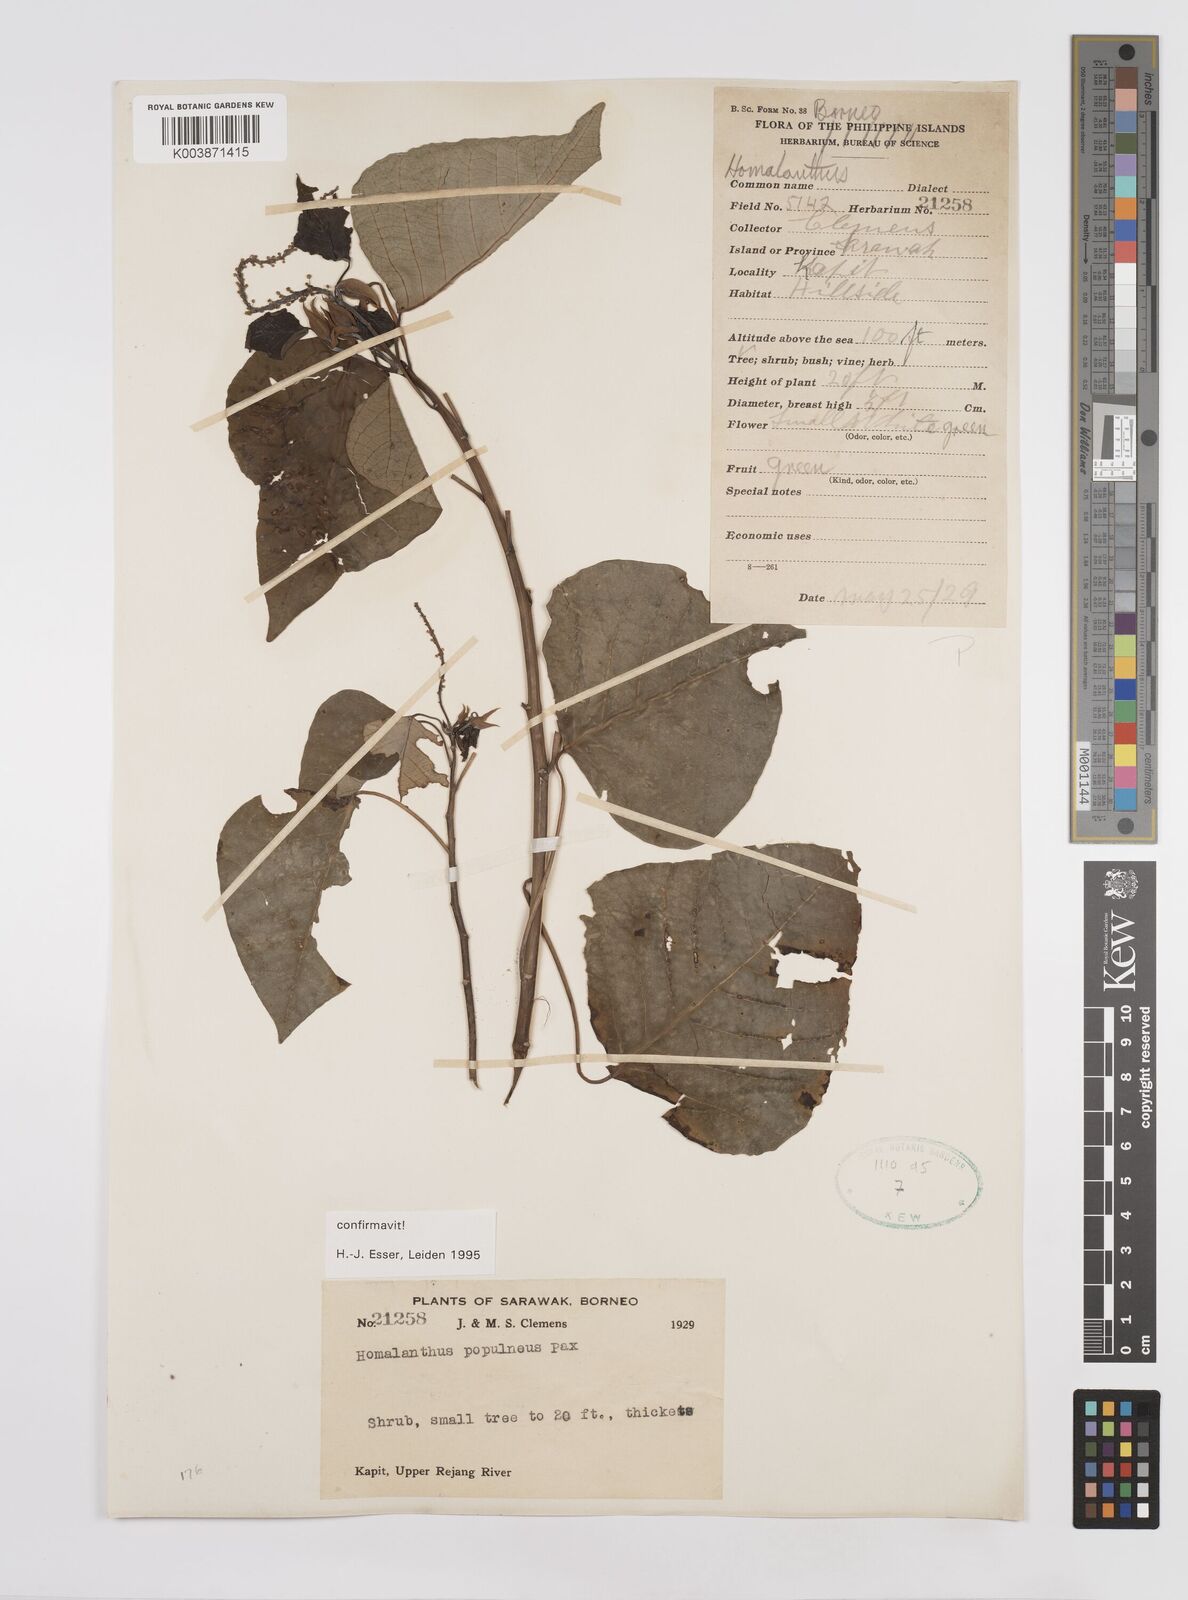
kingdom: Plantae
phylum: Tracheophyta
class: Magnoliopsida
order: Malpighiales
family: Euphorbiaceae
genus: Homalanthus
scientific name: Homalanthus populneus
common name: Spurge
